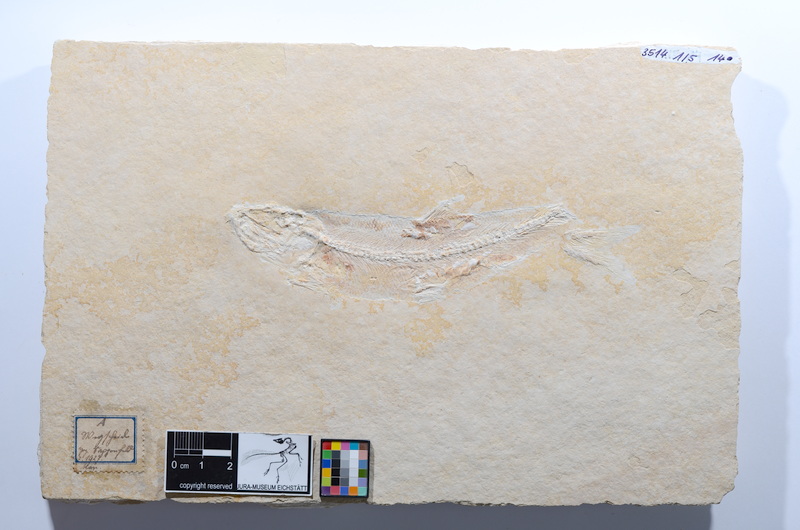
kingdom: Animalia
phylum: Chordata
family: Ascalaboidae
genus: Tharsis
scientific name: Tharsis dubius
